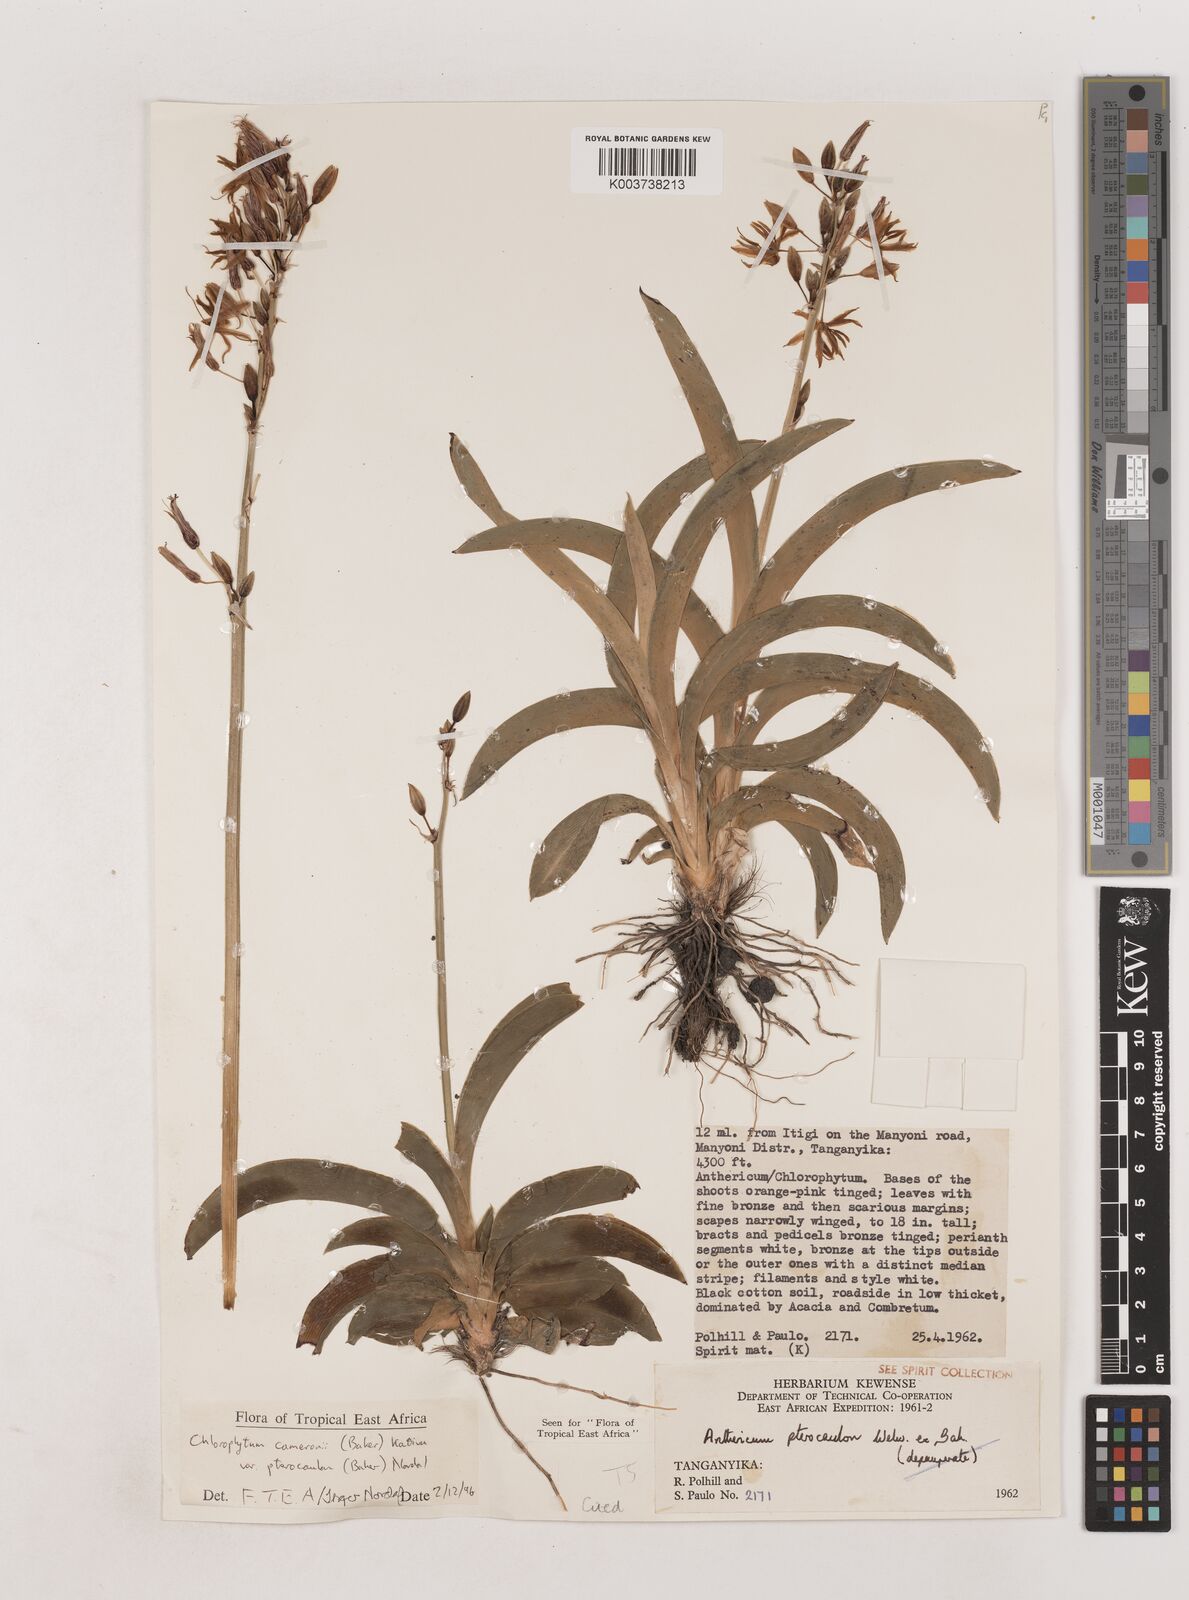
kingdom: Plantae
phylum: Tracheophyta
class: Liliopsida
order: Asparagales
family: Asparagaceae
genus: Chlorophytum
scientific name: Chlorophytum cameronii
